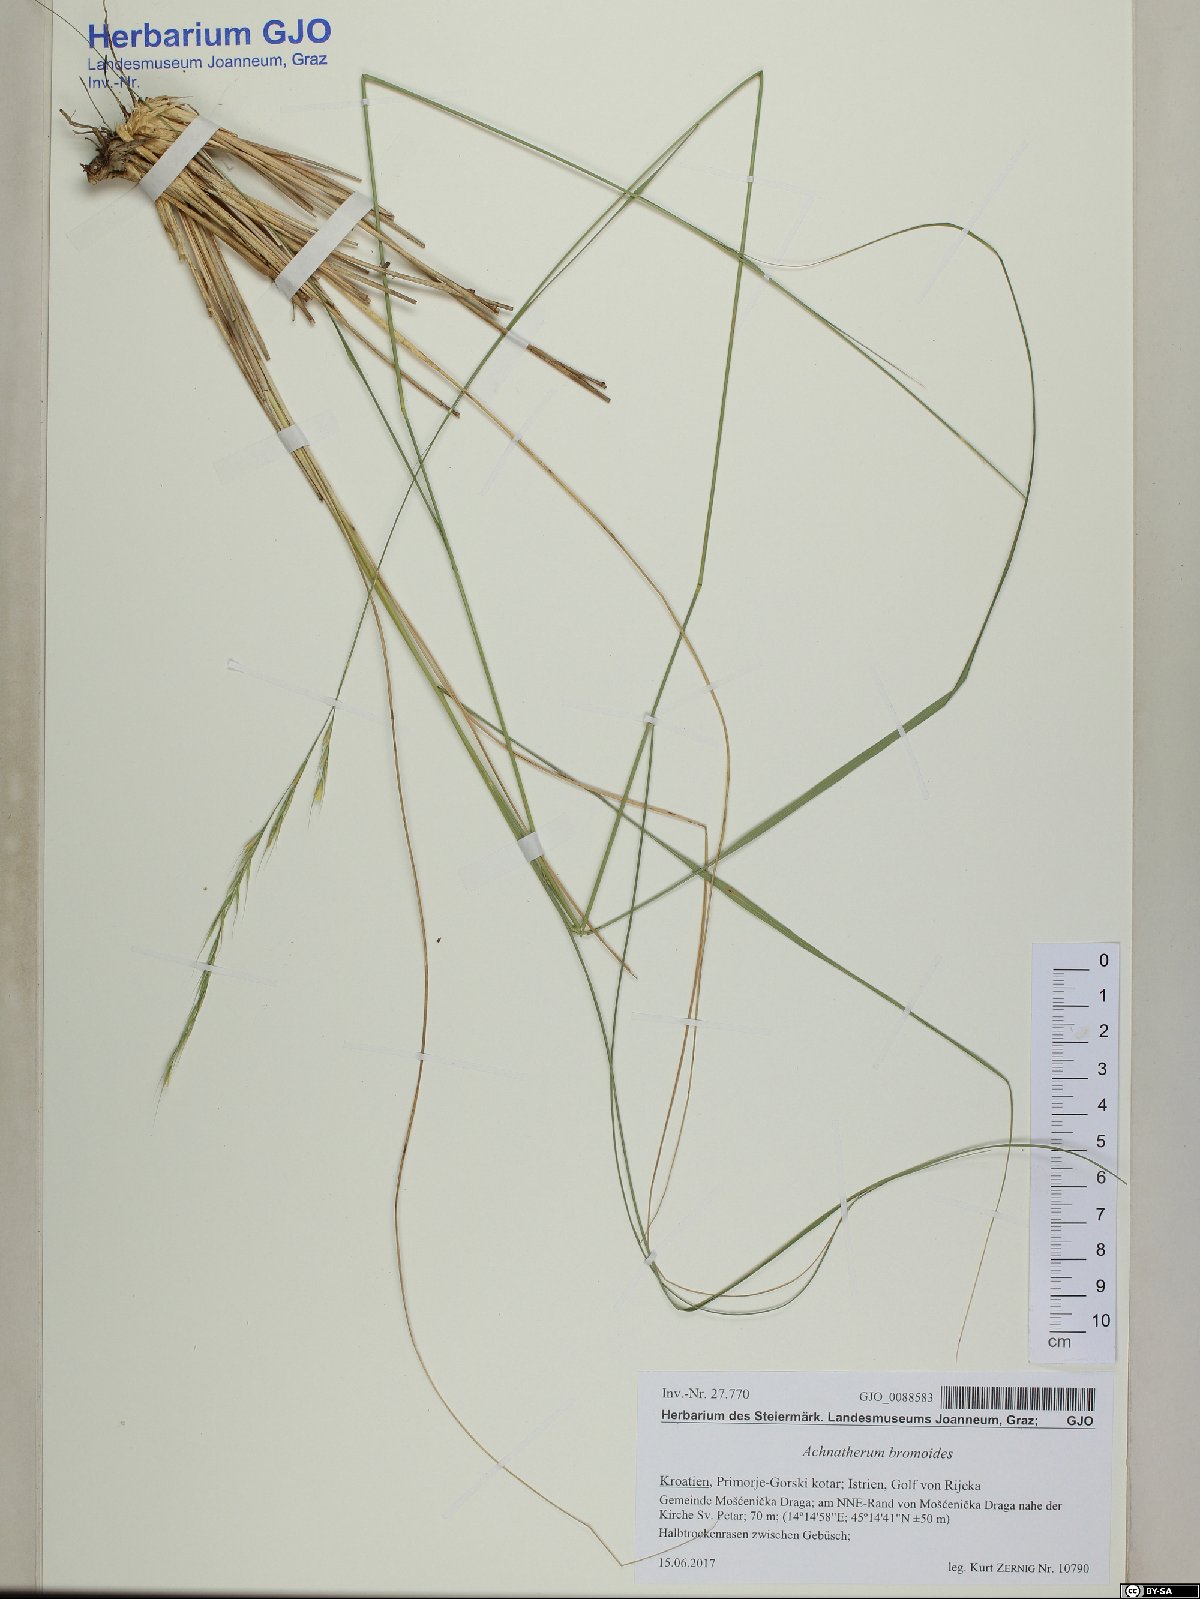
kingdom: Plantae
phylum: Tracheophyta
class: Liliopsida
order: Poales
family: Poaceae
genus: Achnatherum
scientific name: Achnatherum bromoides
